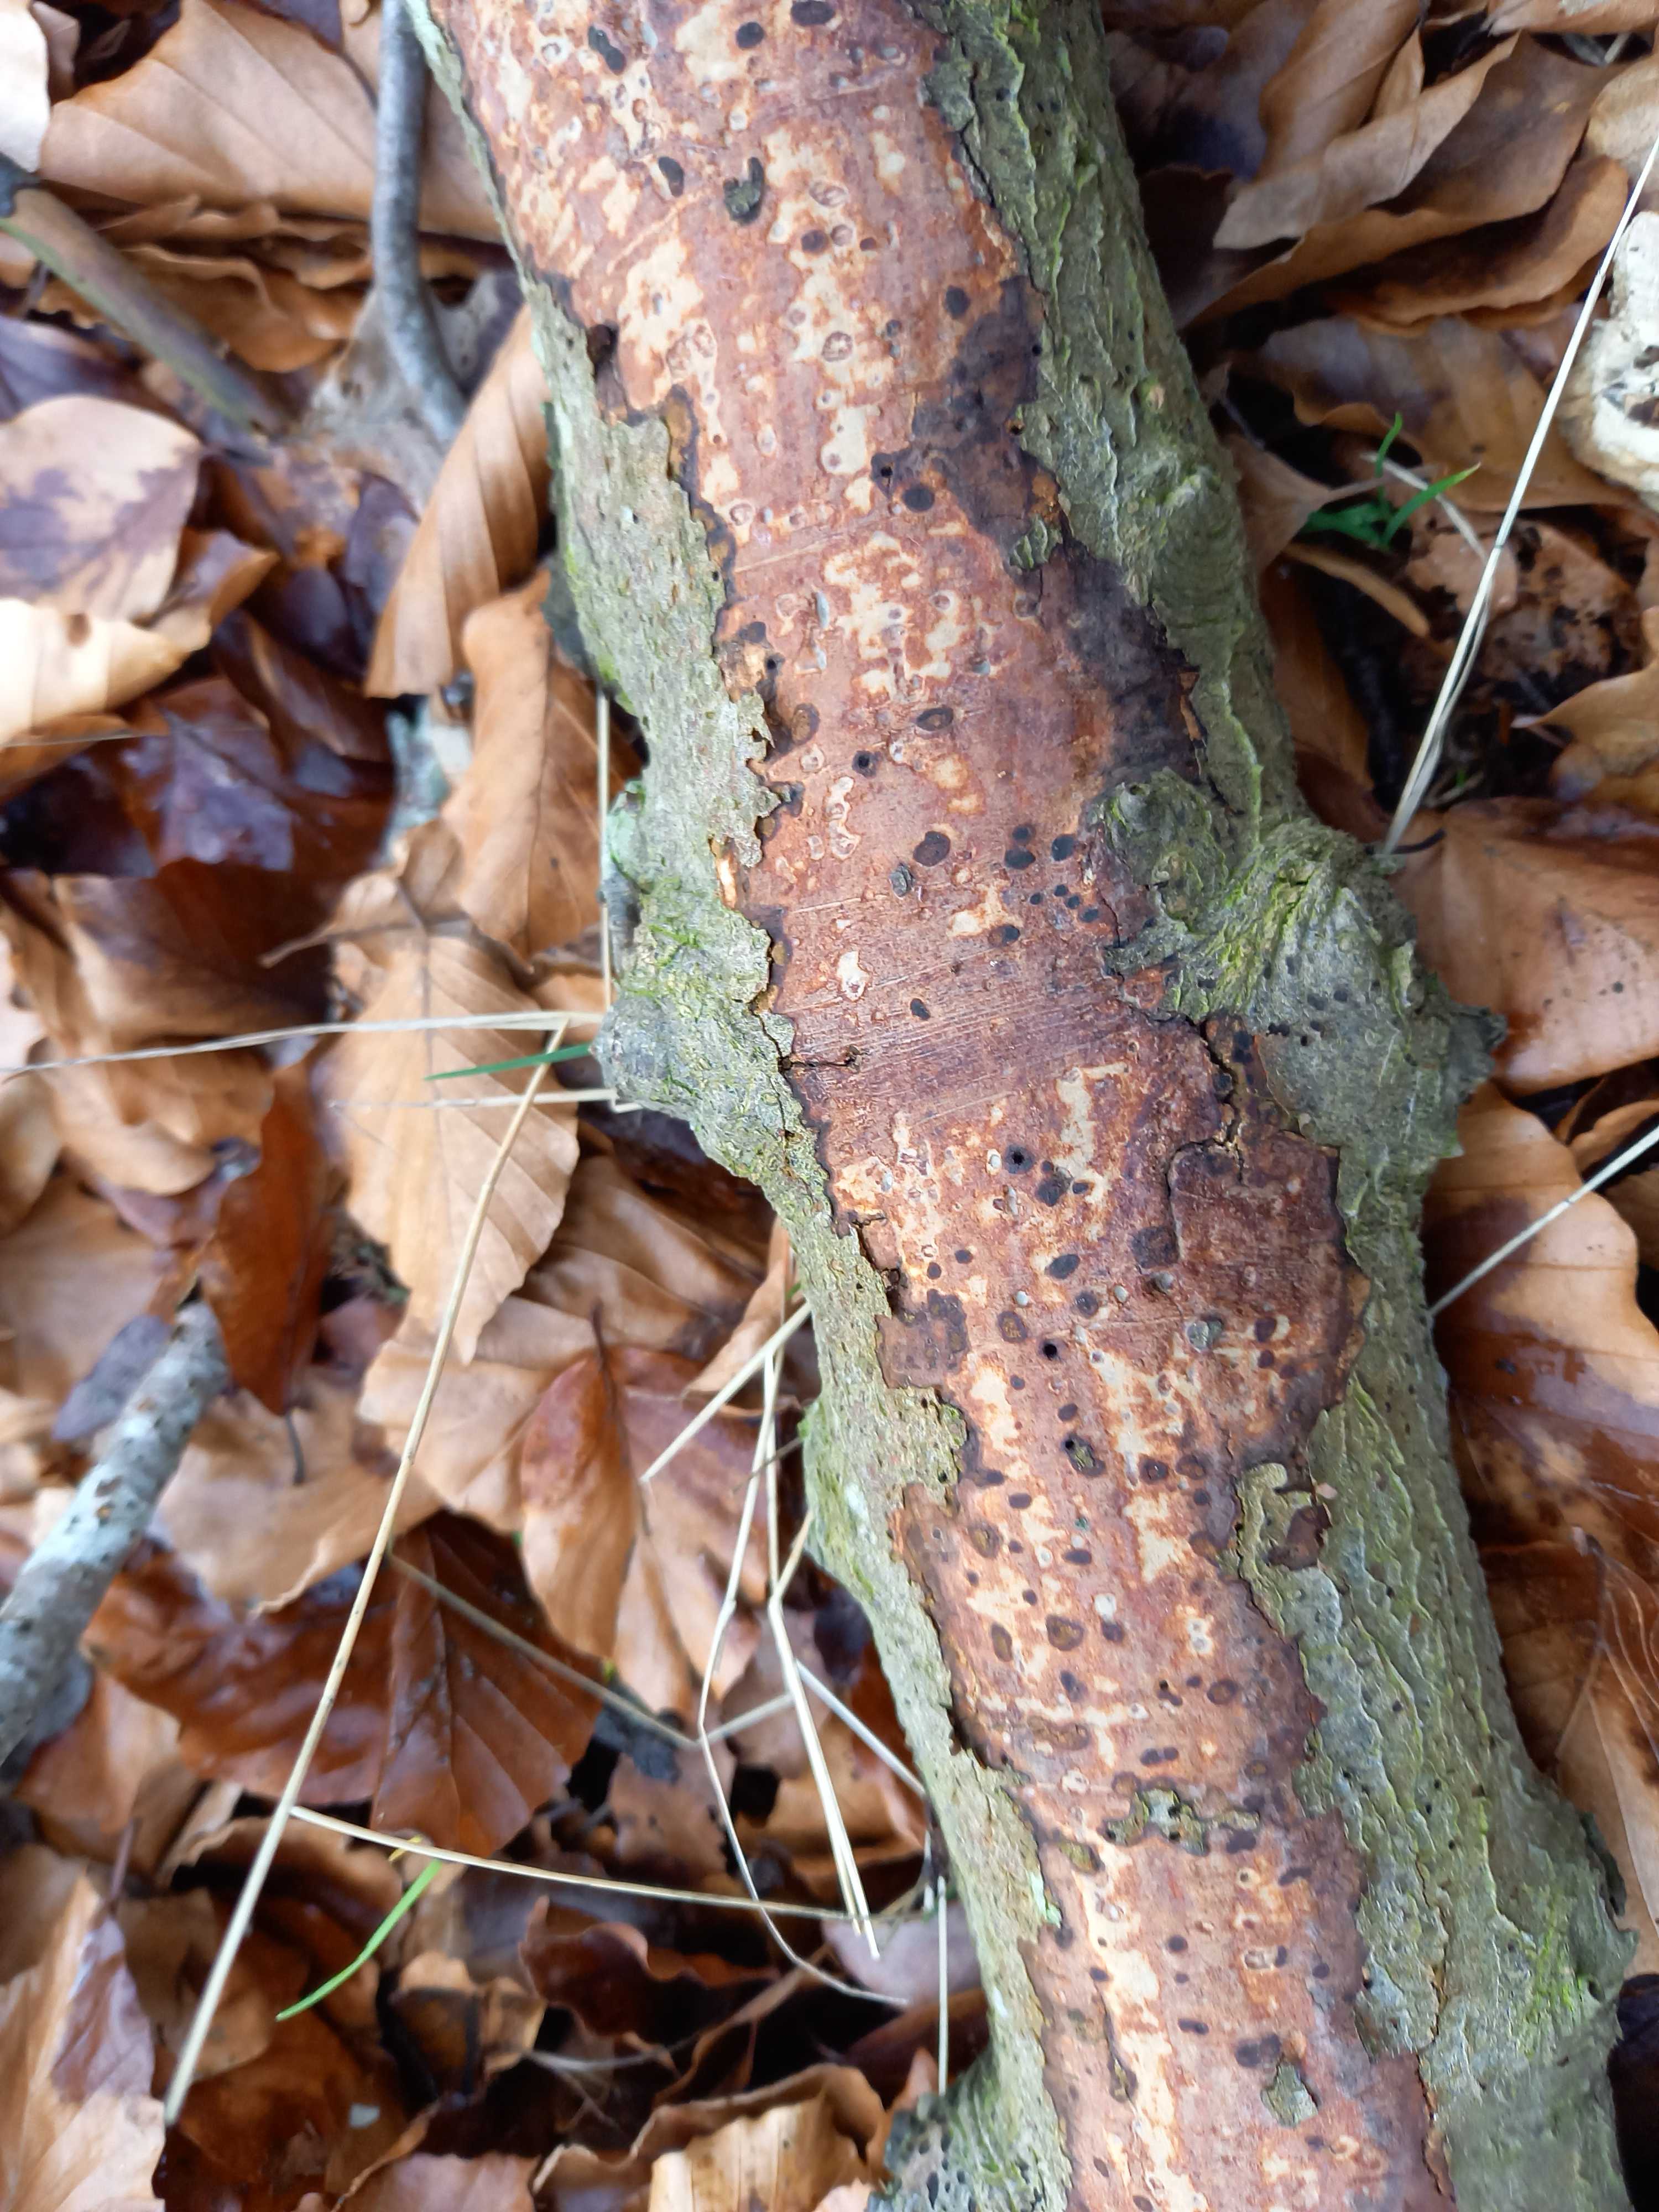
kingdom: Fungi
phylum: Basidiomycota
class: Agaricomycetes
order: Corticiales
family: Vuilleminiaceae
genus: Vuilleminia
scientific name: Vuilleminia comedens
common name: almindelig barksprænger
